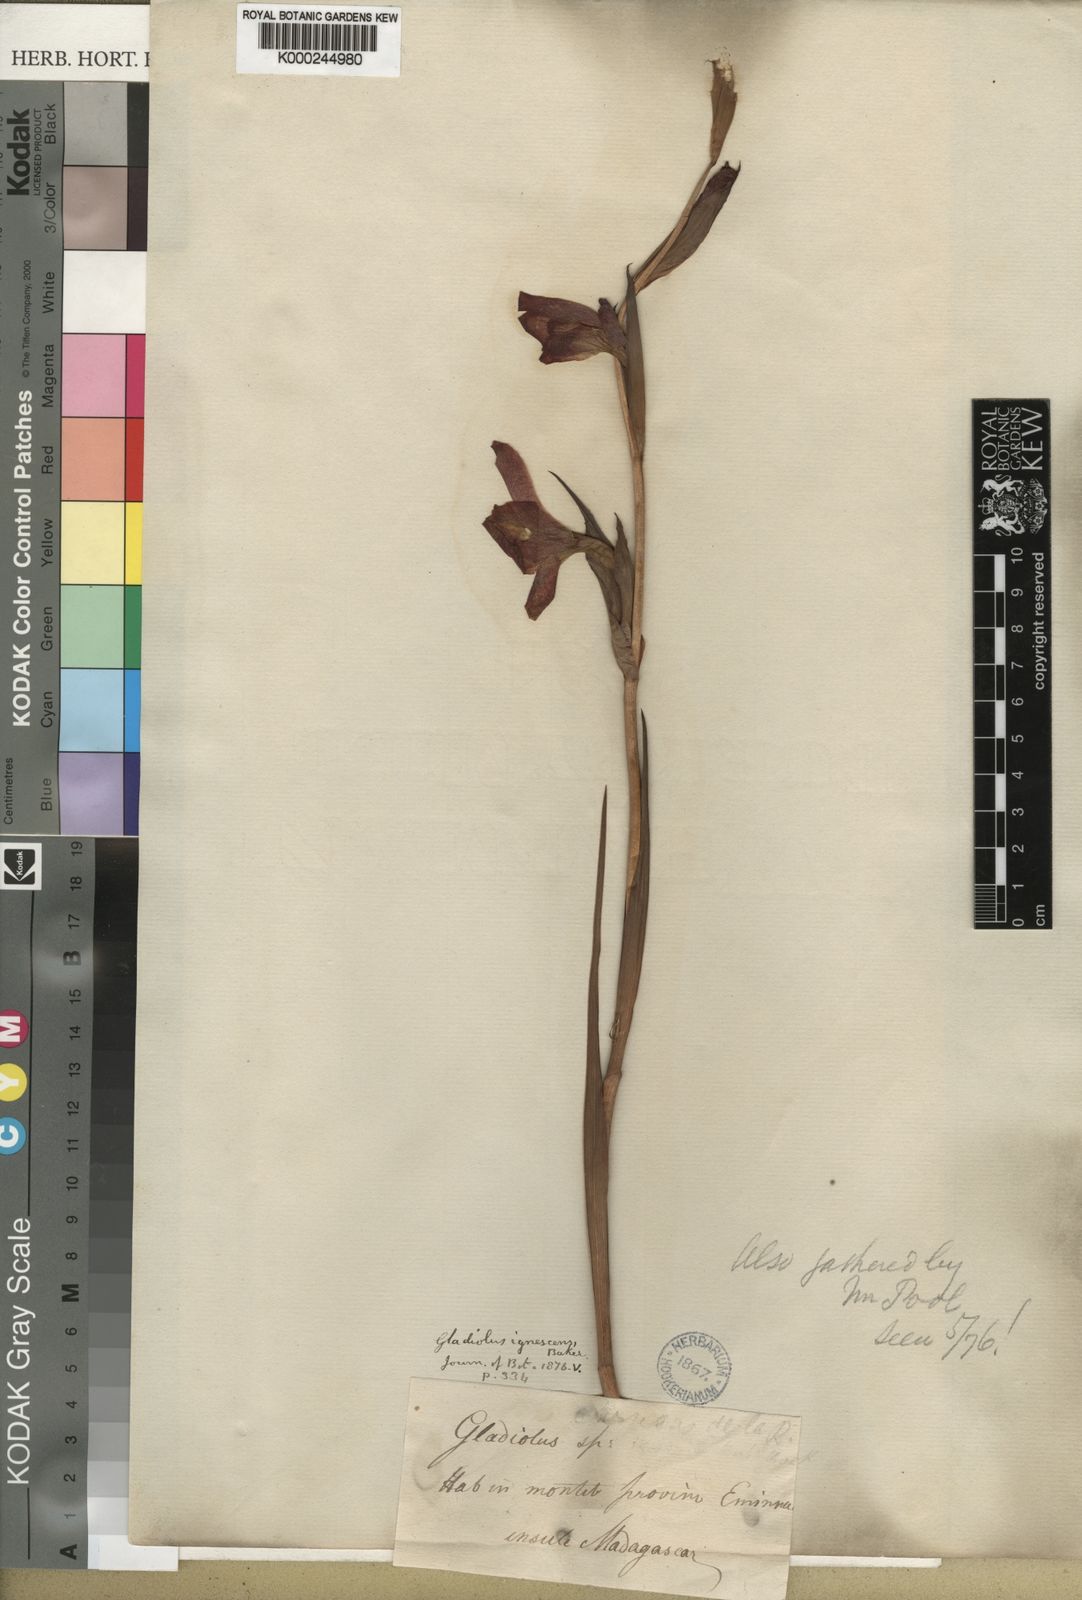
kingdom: Plantae
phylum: Tracheophyta
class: Liliopsida
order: Asparagales
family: Iridaceae
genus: Gladiolus
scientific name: Gladiolus watsonioides
